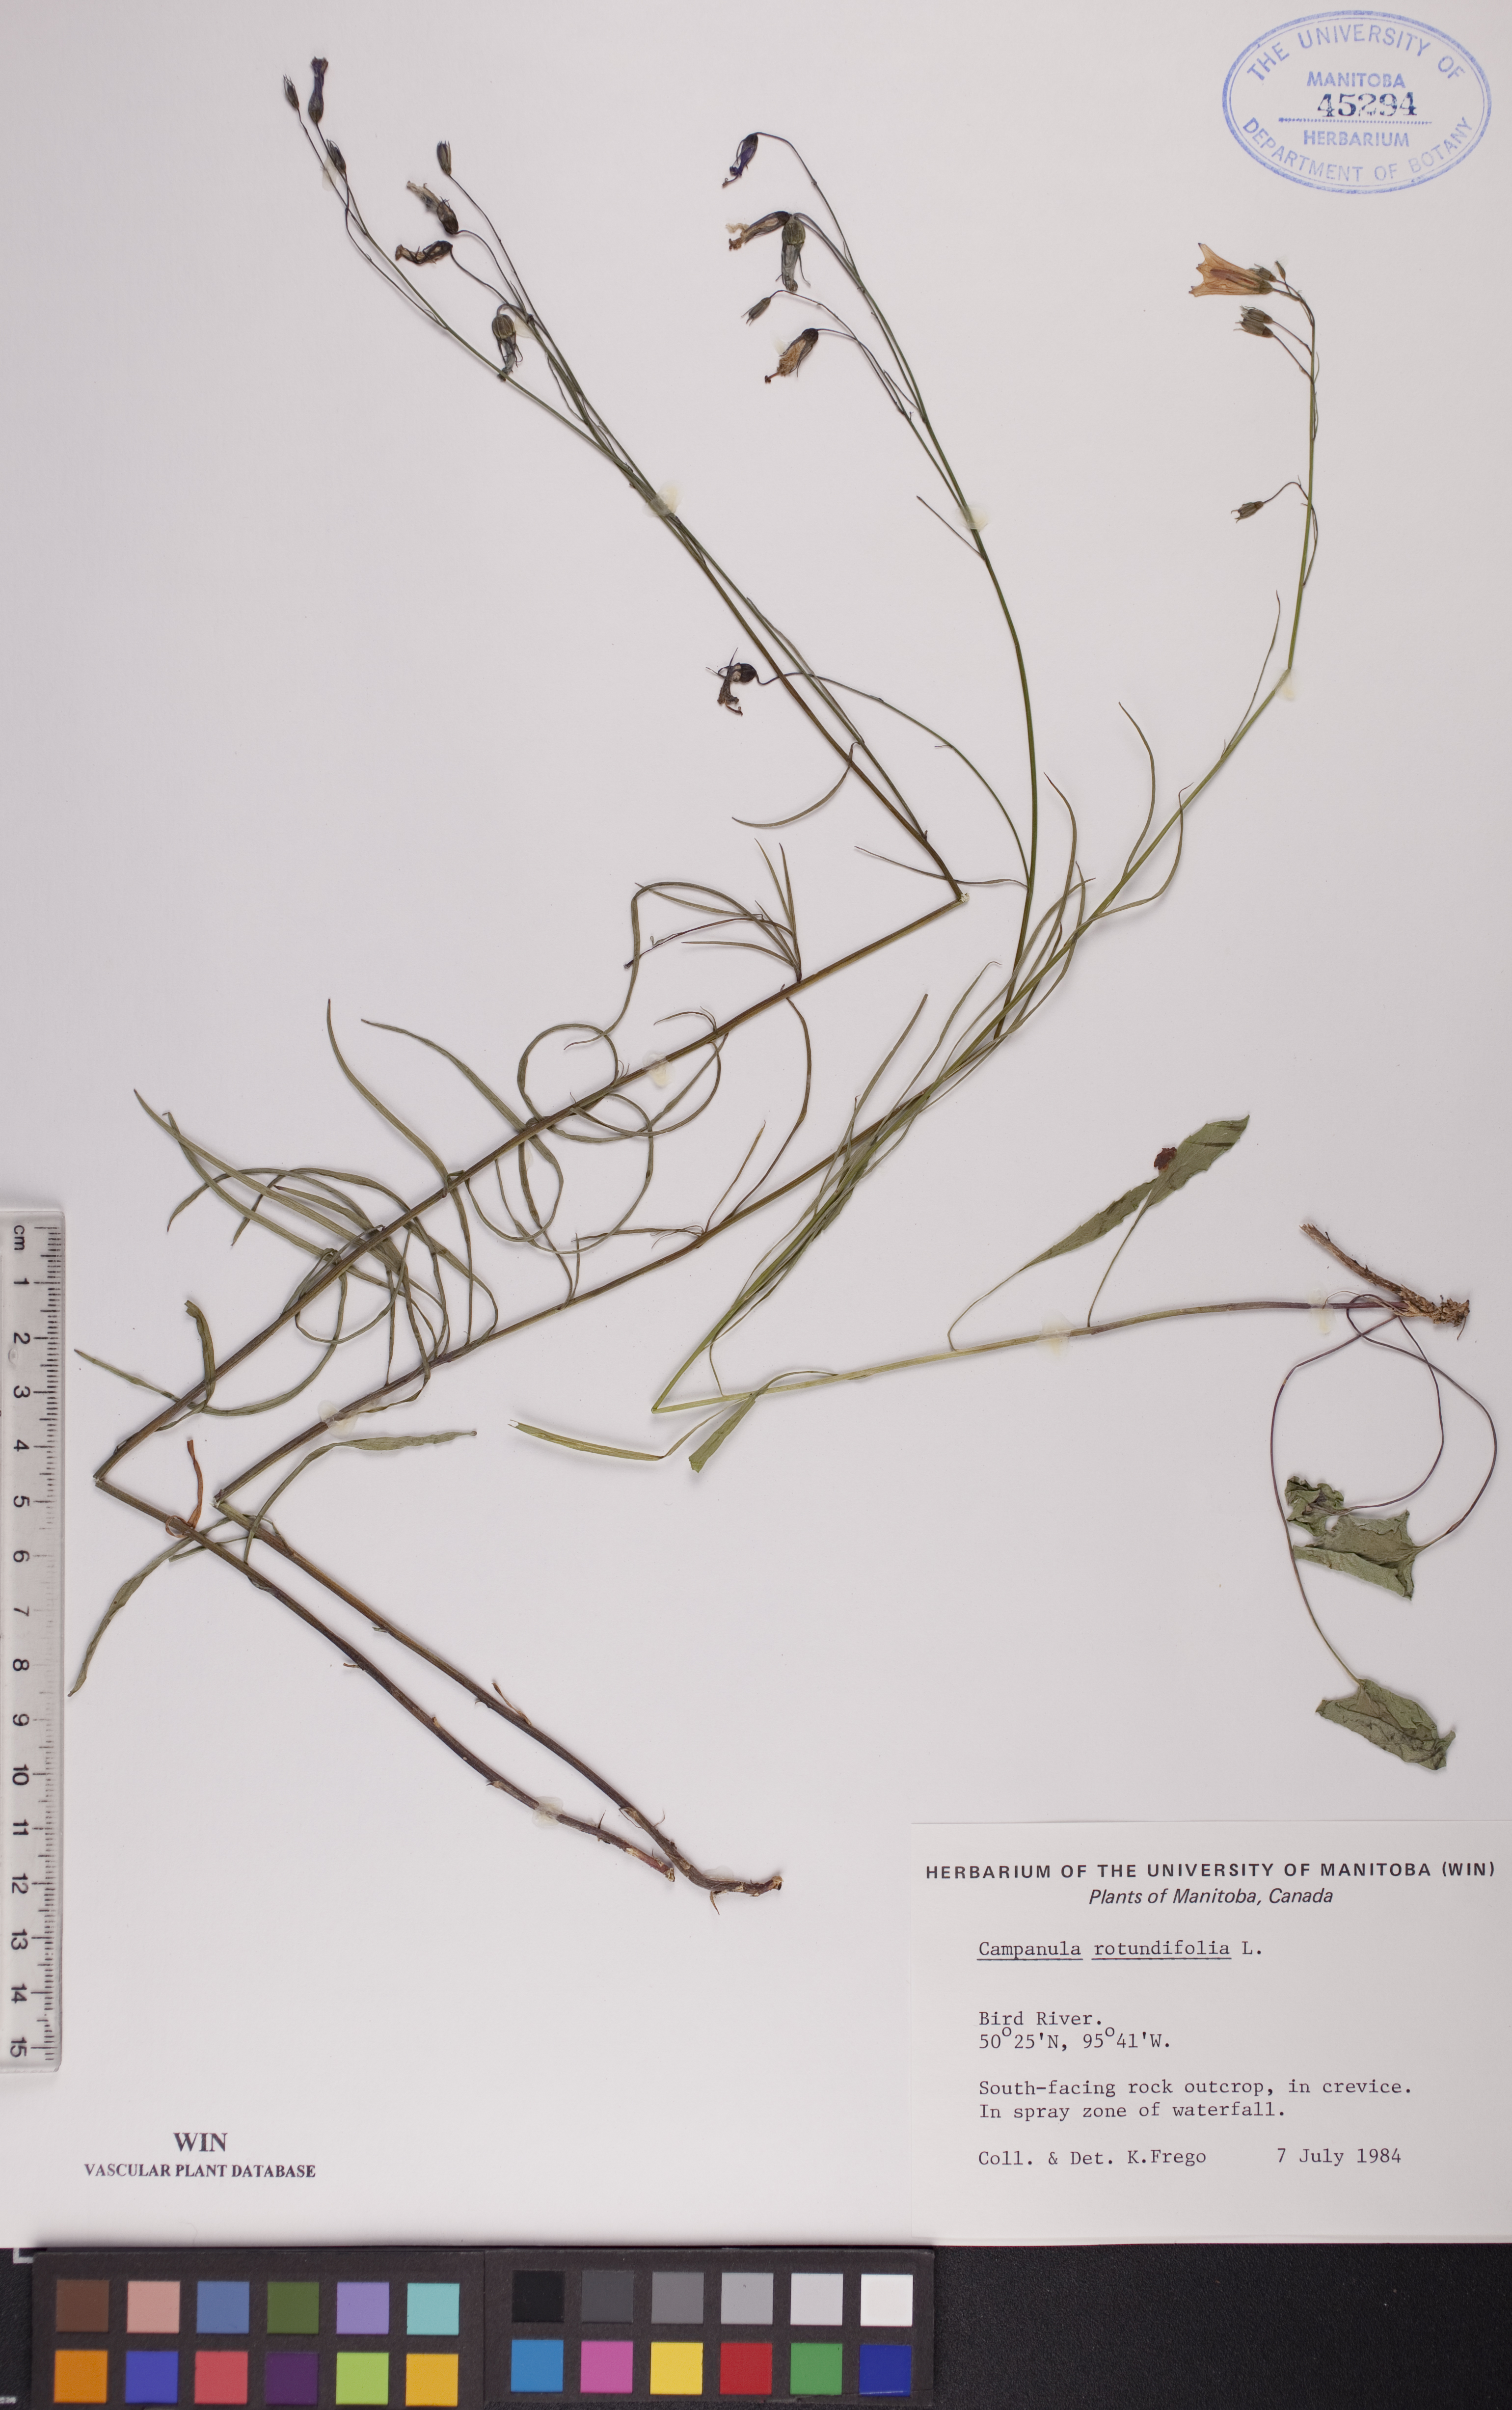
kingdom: Plantae
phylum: Tracheophyta
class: Magnoliopsida
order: Asterales
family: Campanulaceae
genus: Campanula
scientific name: Campanula rotundifolia
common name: Harebell
